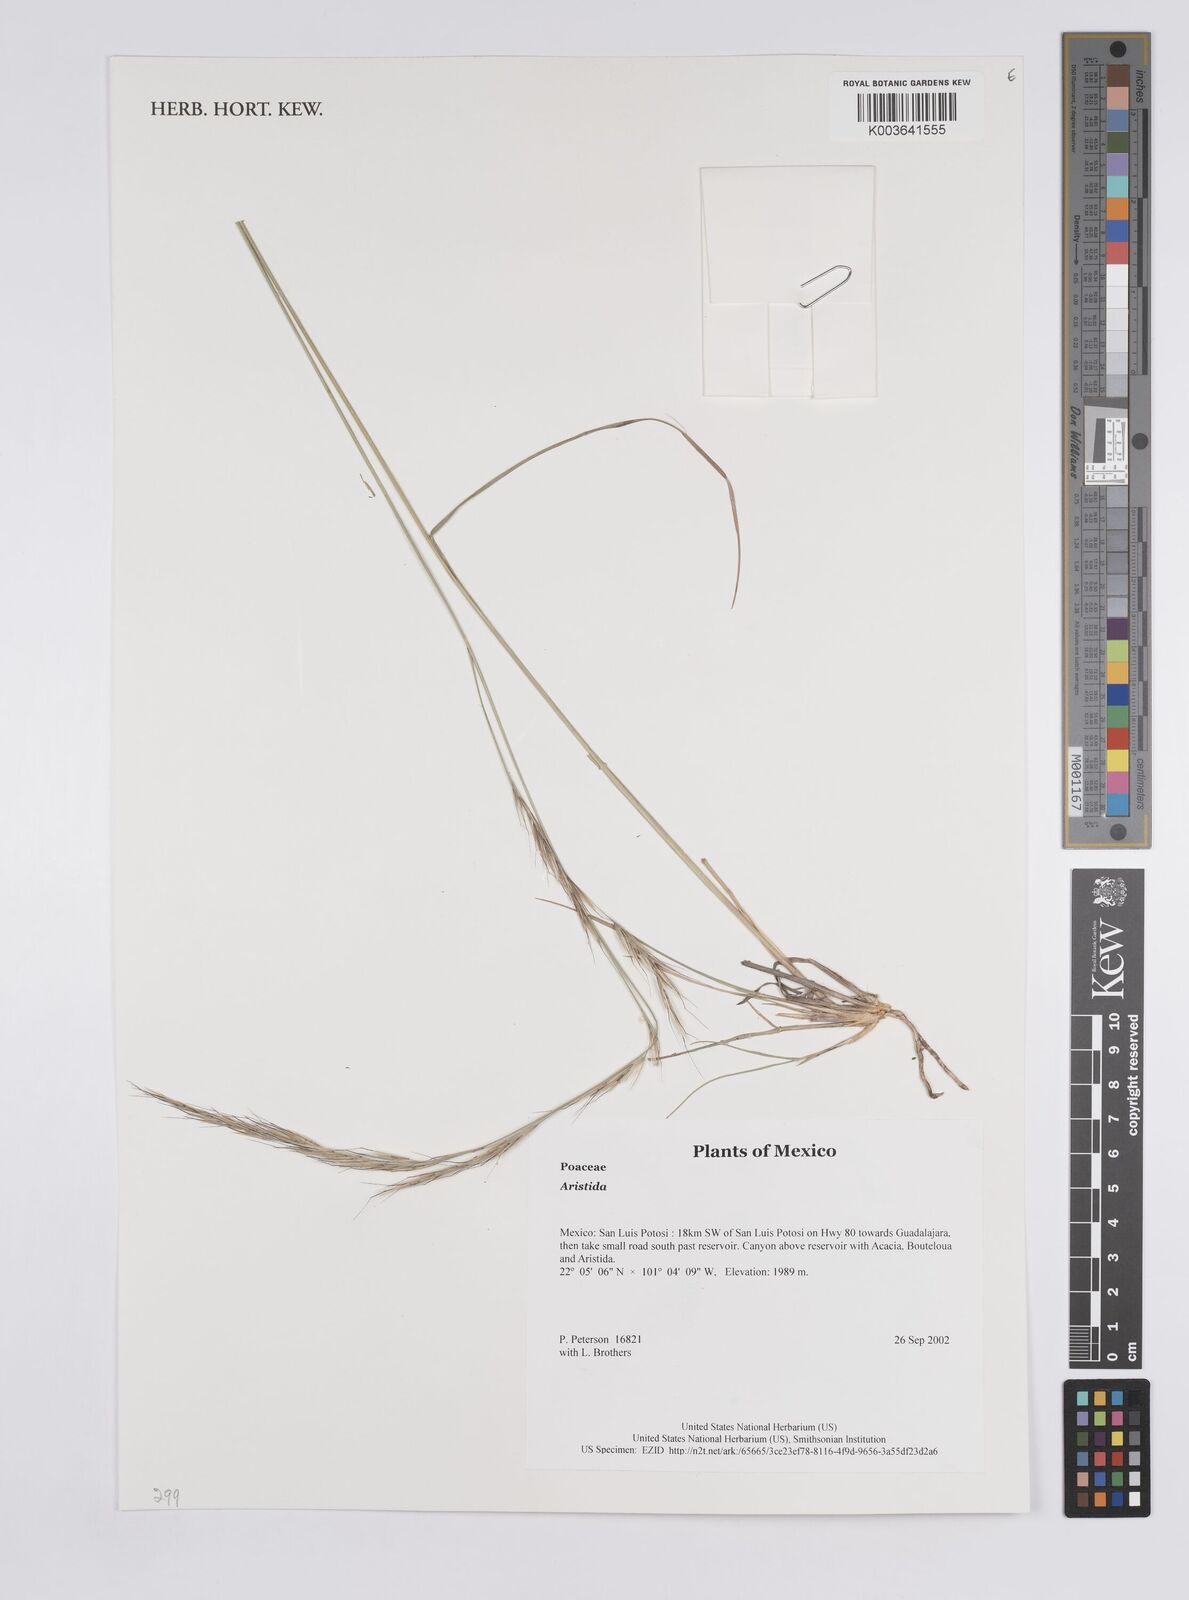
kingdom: Plantae
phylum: Tracheophyta
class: Liliopsida
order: Poales
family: Poaceae
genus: Aristida
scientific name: Aristida
